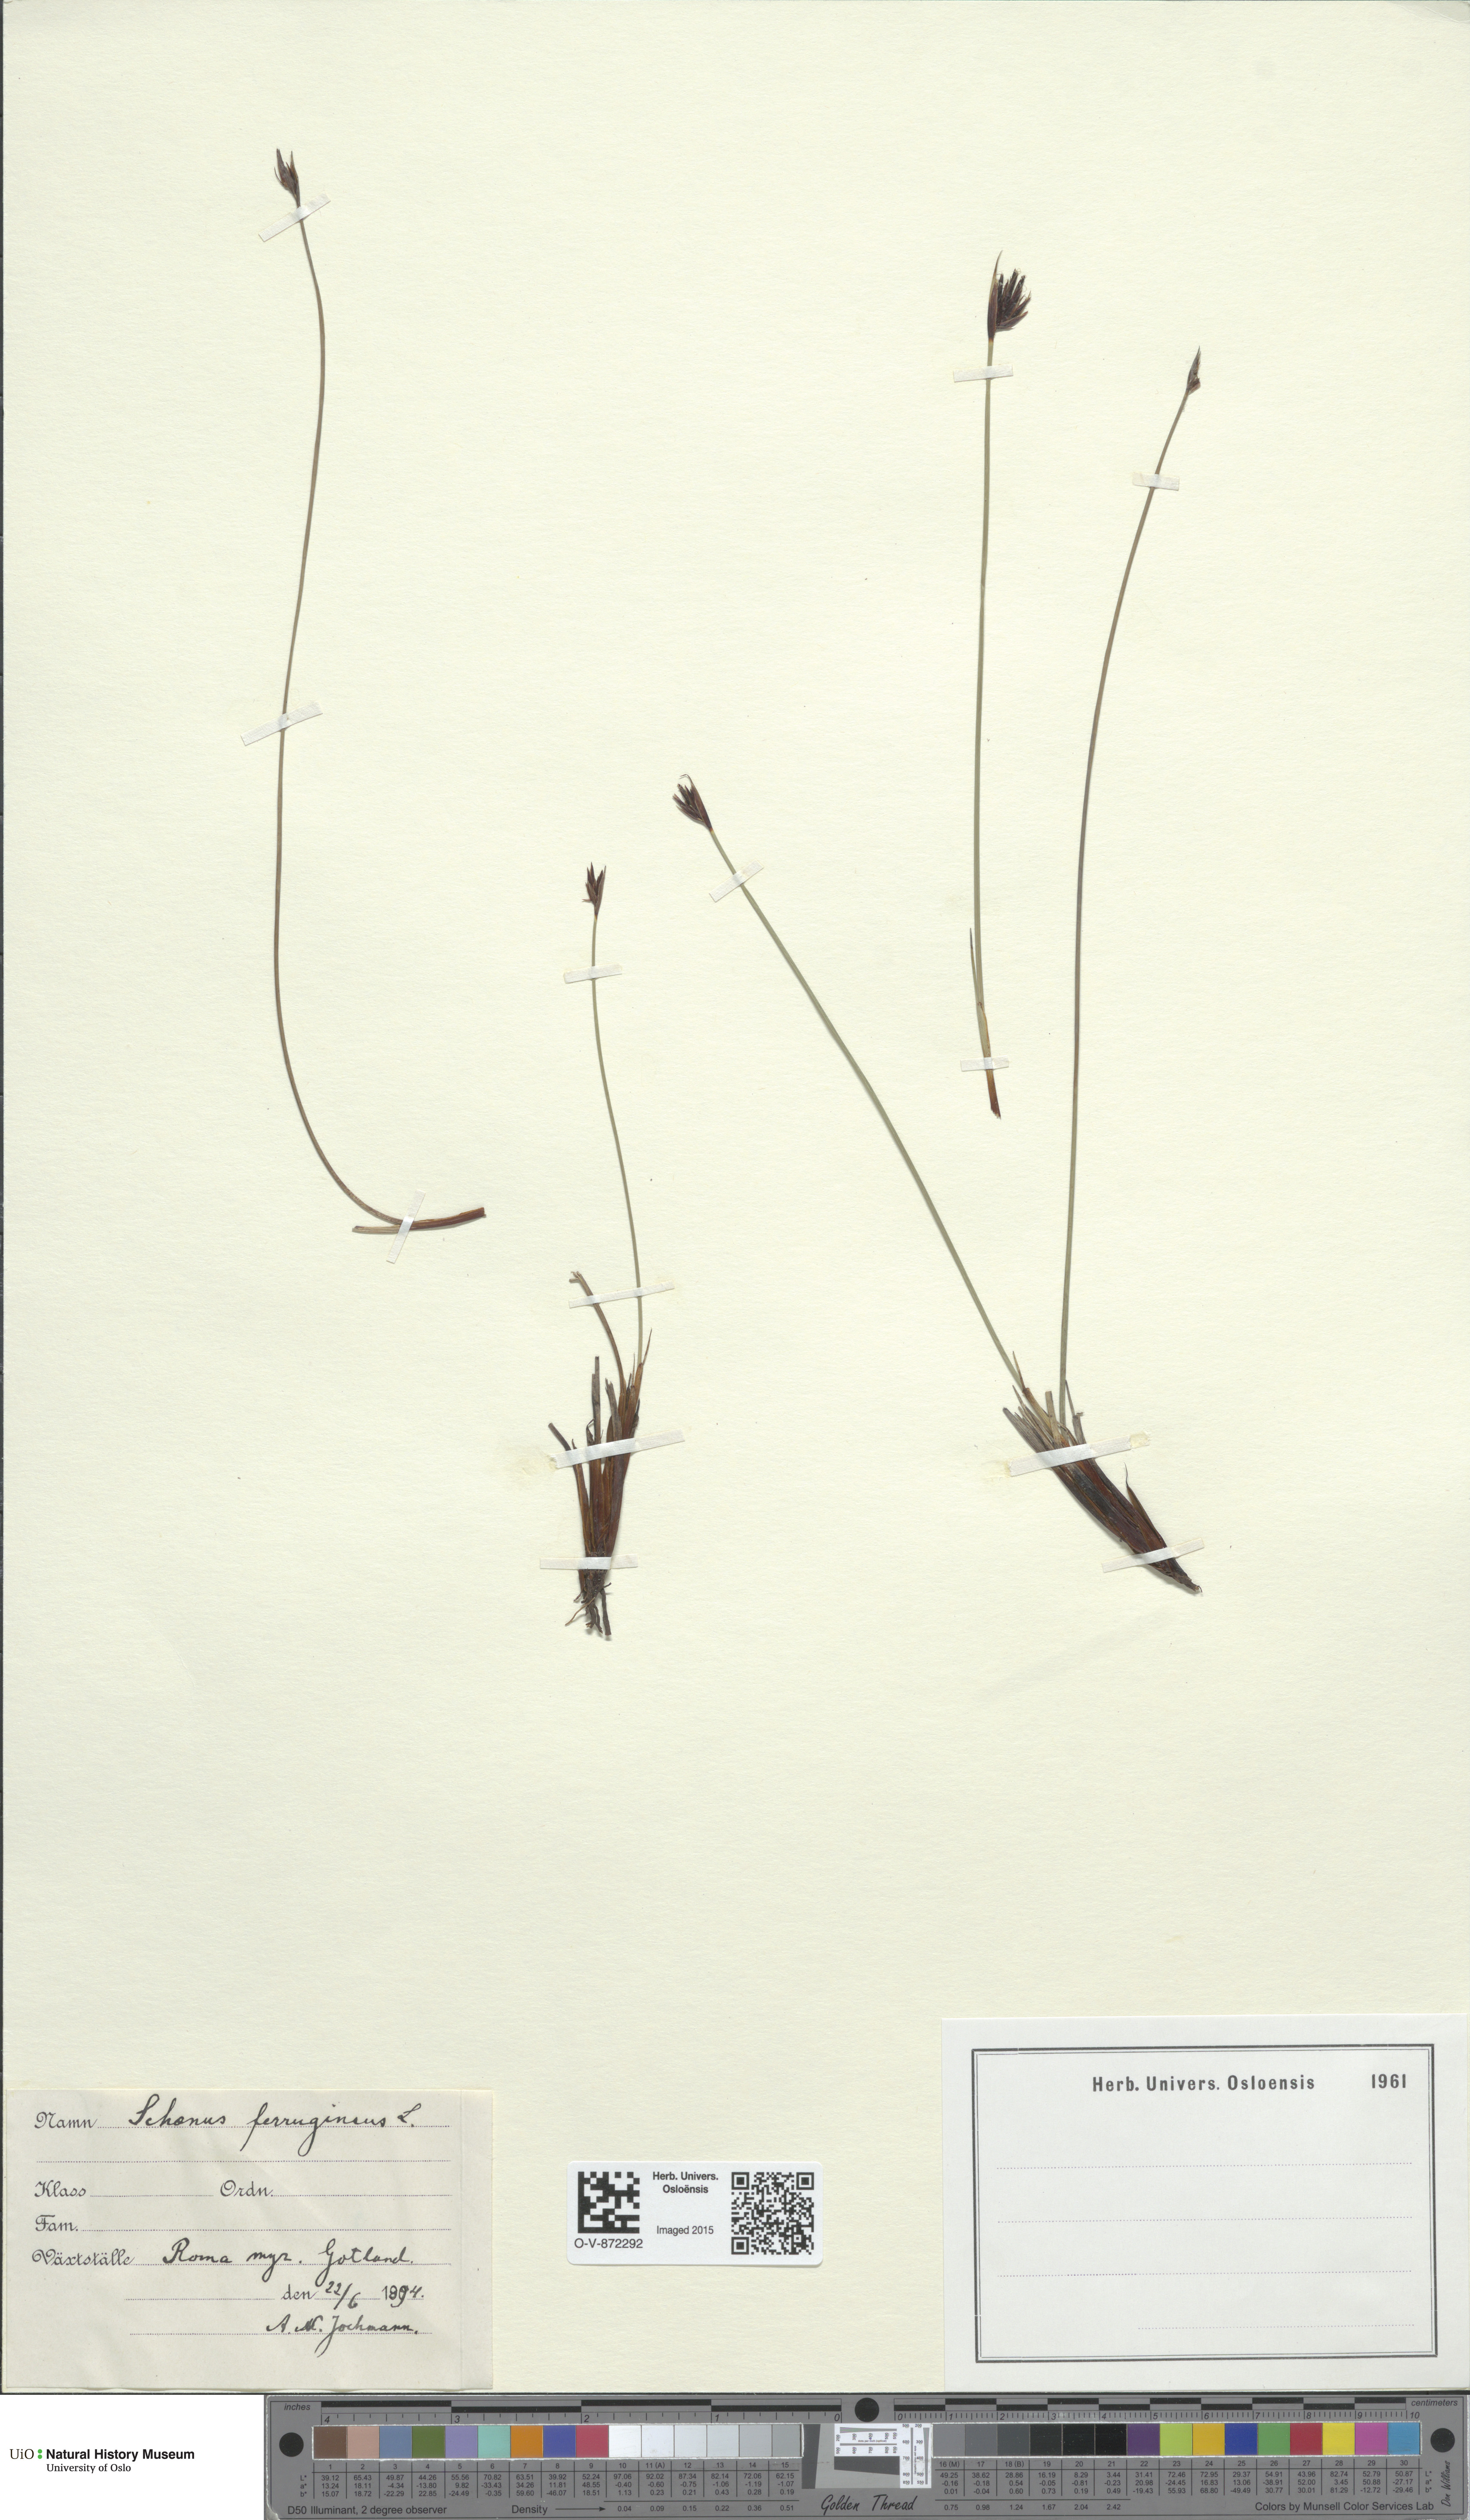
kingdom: Plantae
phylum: Tracheophyta
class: Liliopsida
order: Poales
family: Cyperaceae
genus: Schoenus
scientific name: Schoenus ferrugineus
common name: Brown bog-rush
